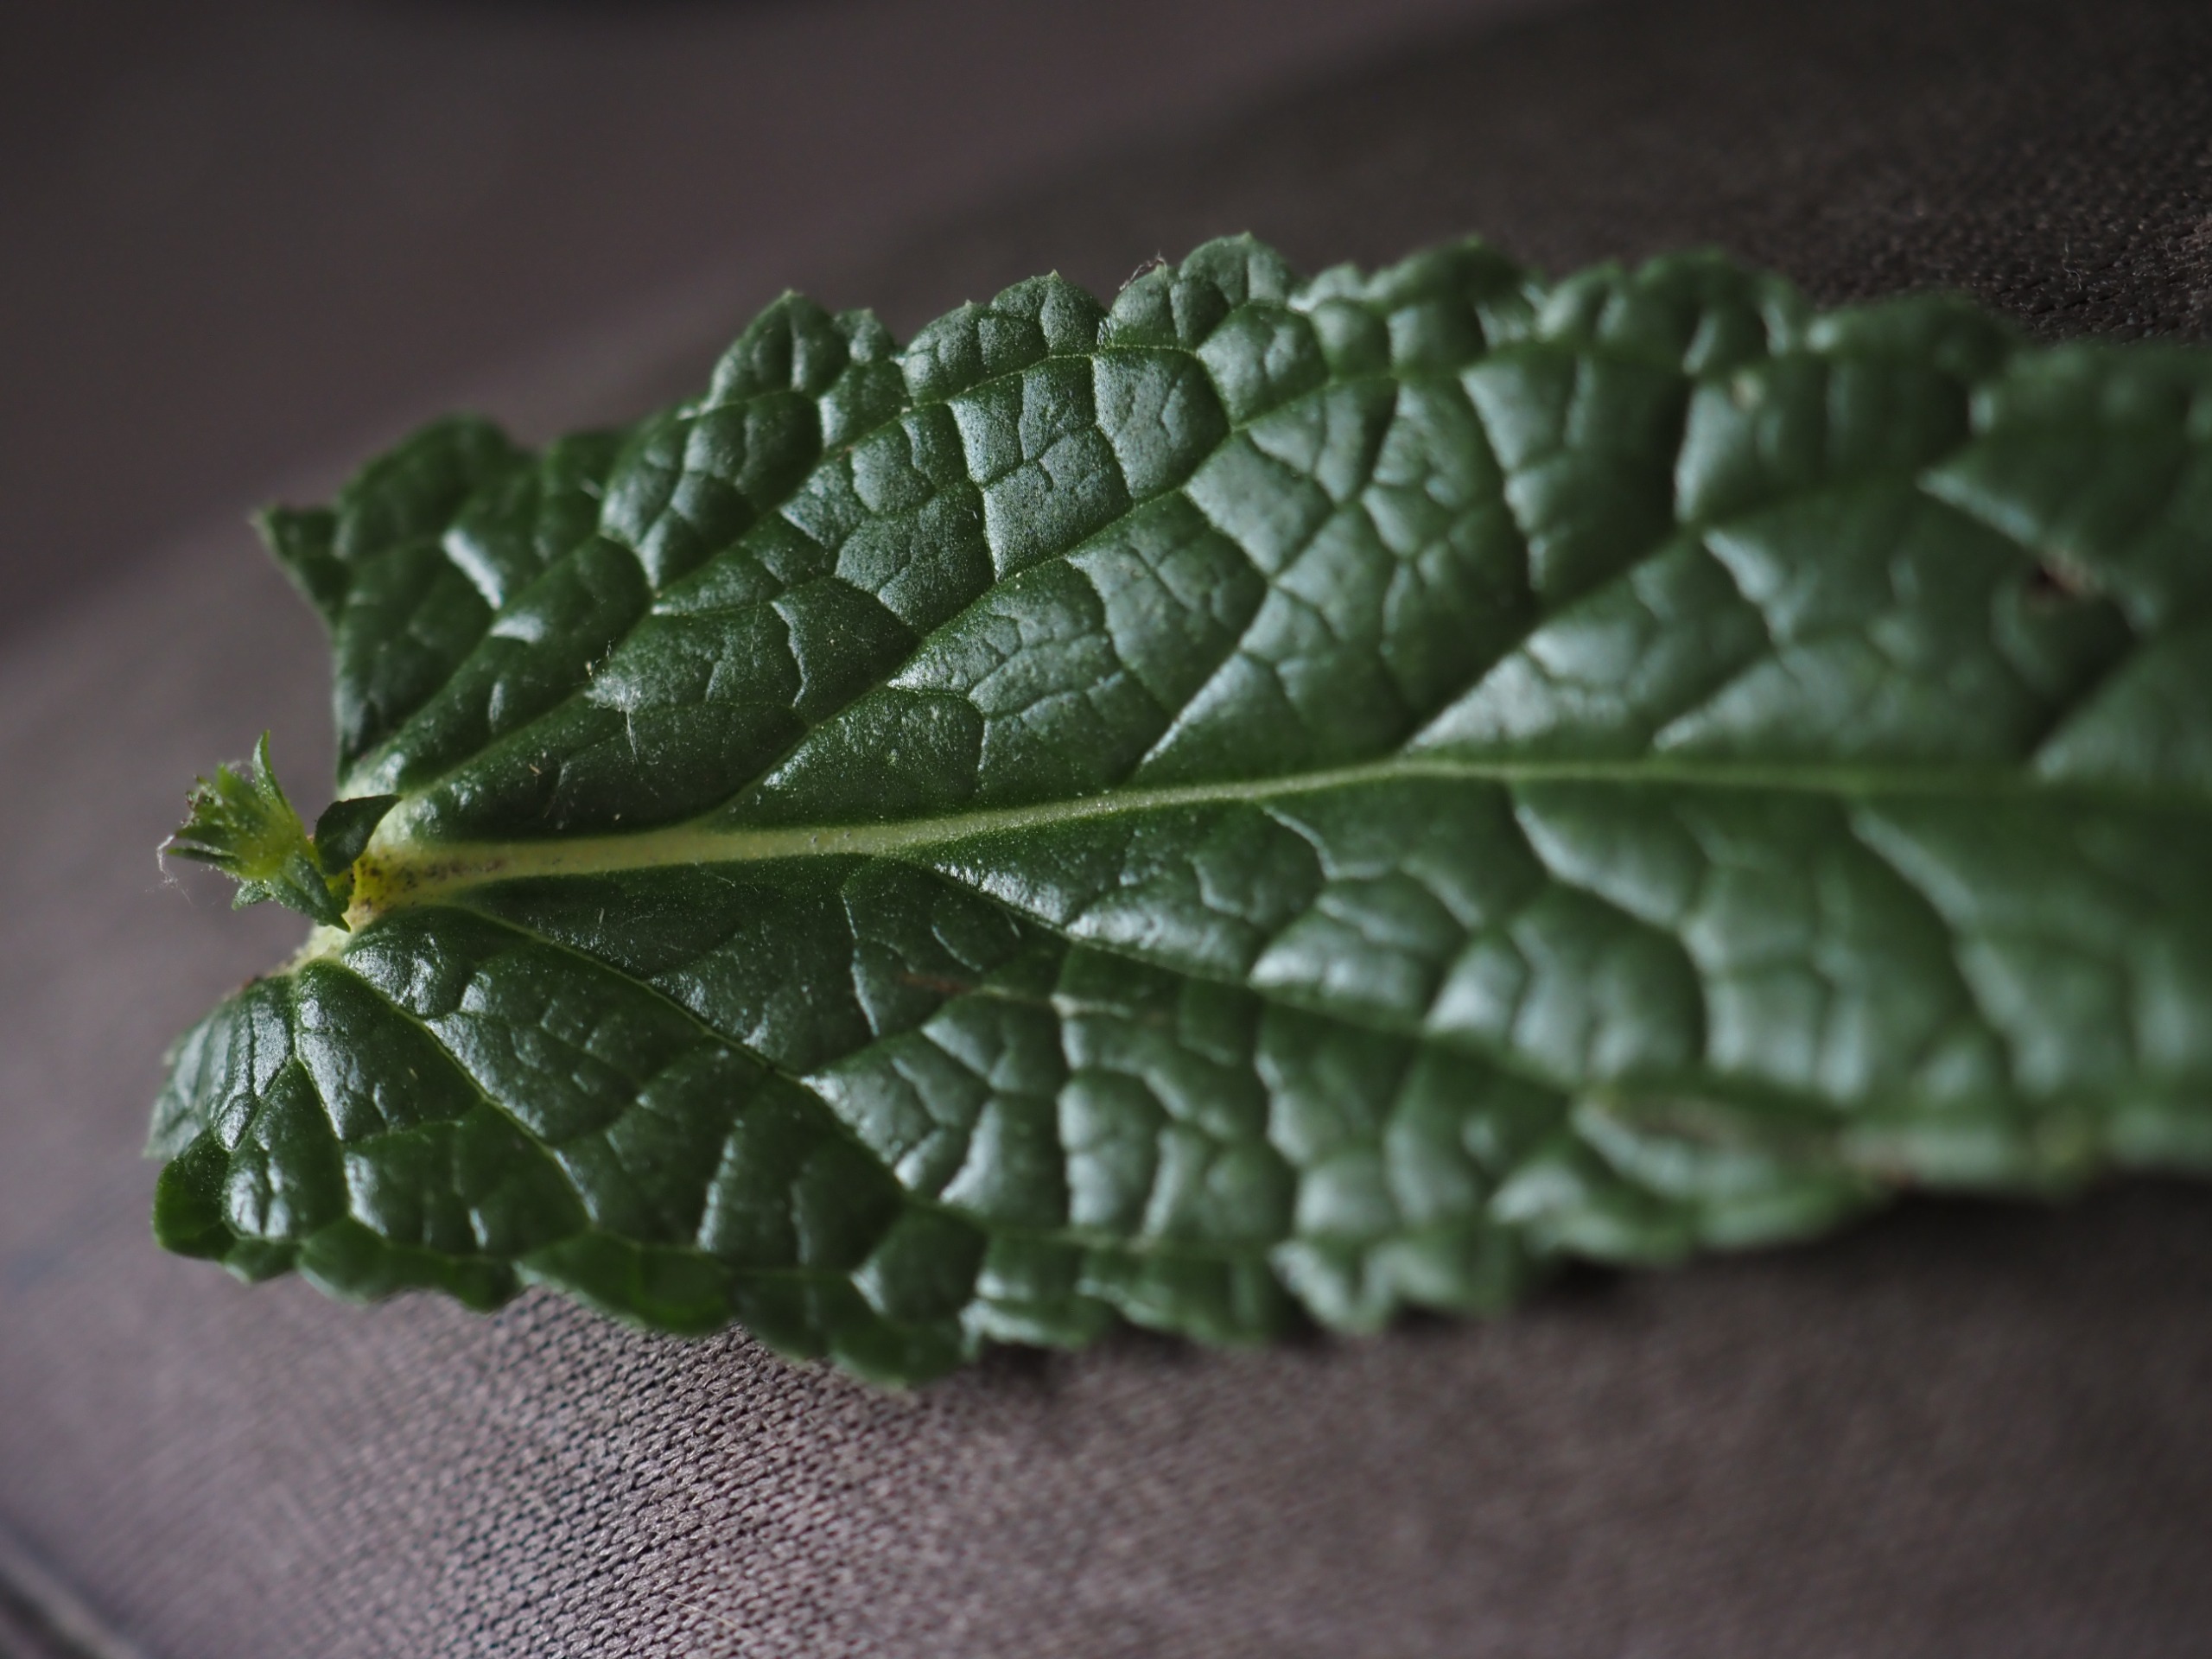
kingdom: Plantae
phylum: Tracheophyta
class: Magnoliopsida
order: Lamiales
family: Scrophulariaceae
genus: Verbascum
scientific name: Verbascum blattaria
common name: Klase-kongelys
